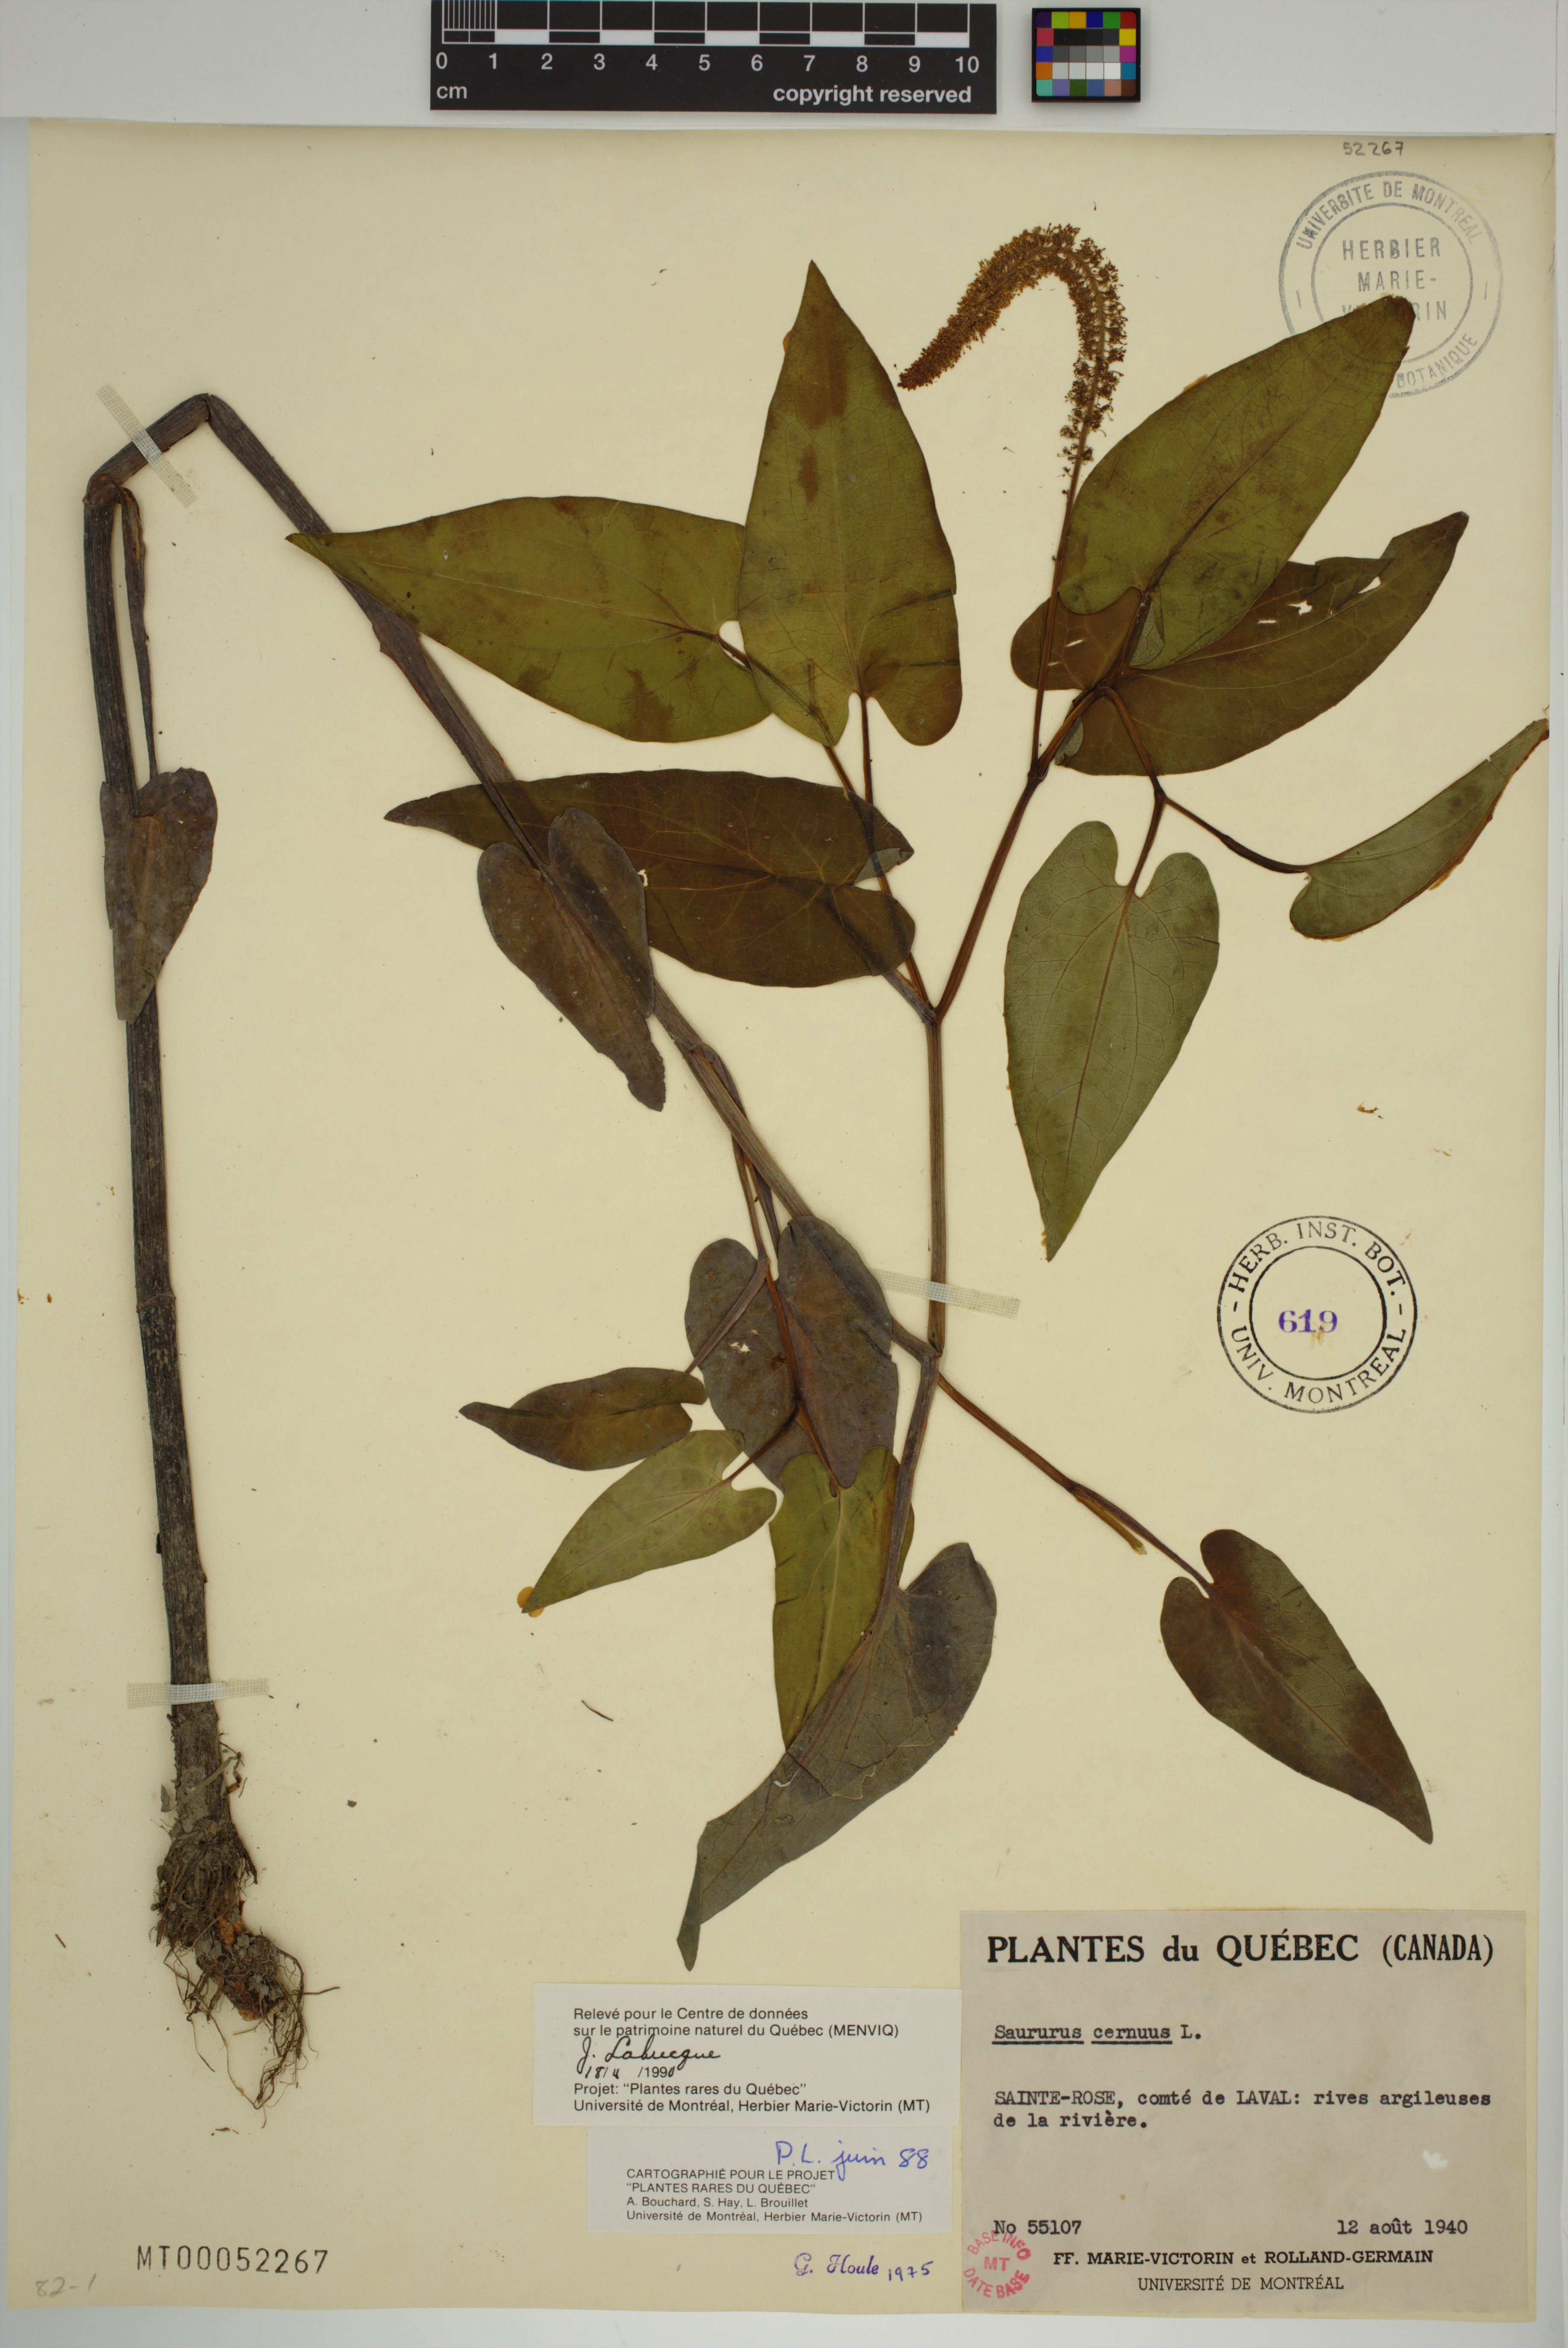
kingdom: Plantae
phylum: Tracheophyta
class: Magnoliopsida
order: Piperales
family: Saururaceae
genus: Saururus
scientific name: Saururus cernuus
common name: Lizard's-tail
